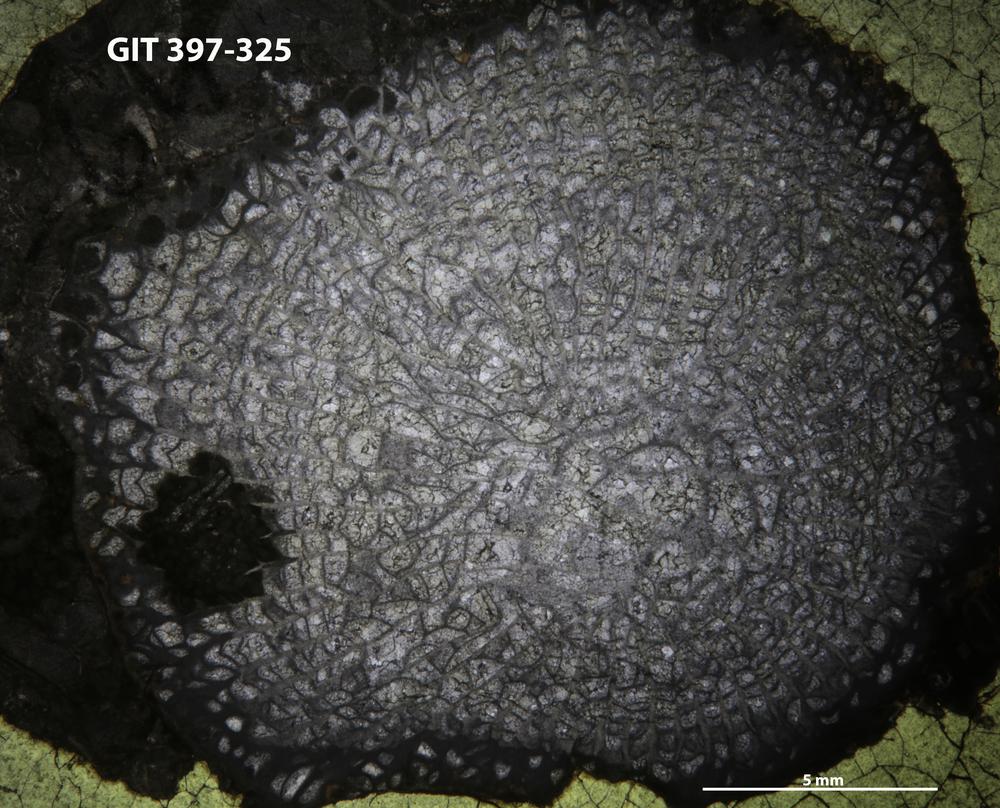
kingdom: Animalia
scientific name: Animalia
